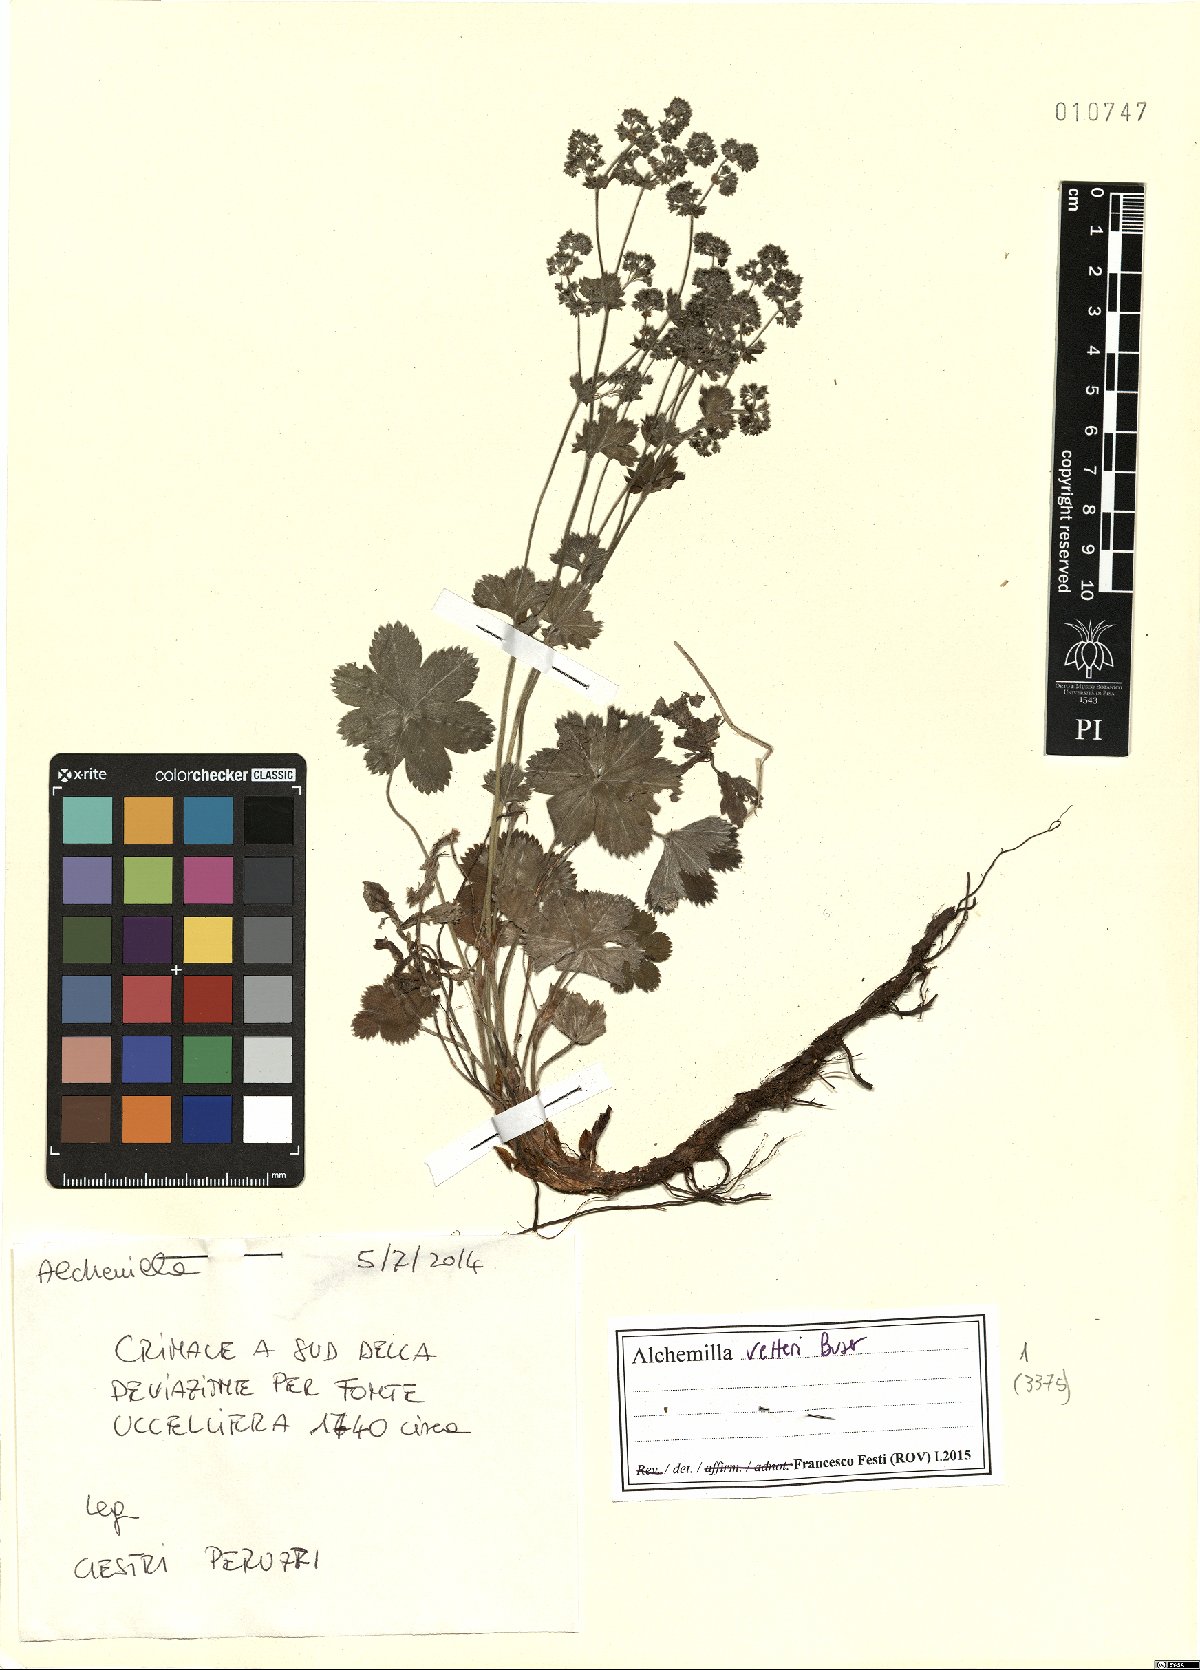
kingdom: Plantae
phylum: Tracheophyta
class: Magnoliopsida
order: Rosales
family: Rosaceae
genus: Alchemilla
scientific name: Alchemilla vetteri
